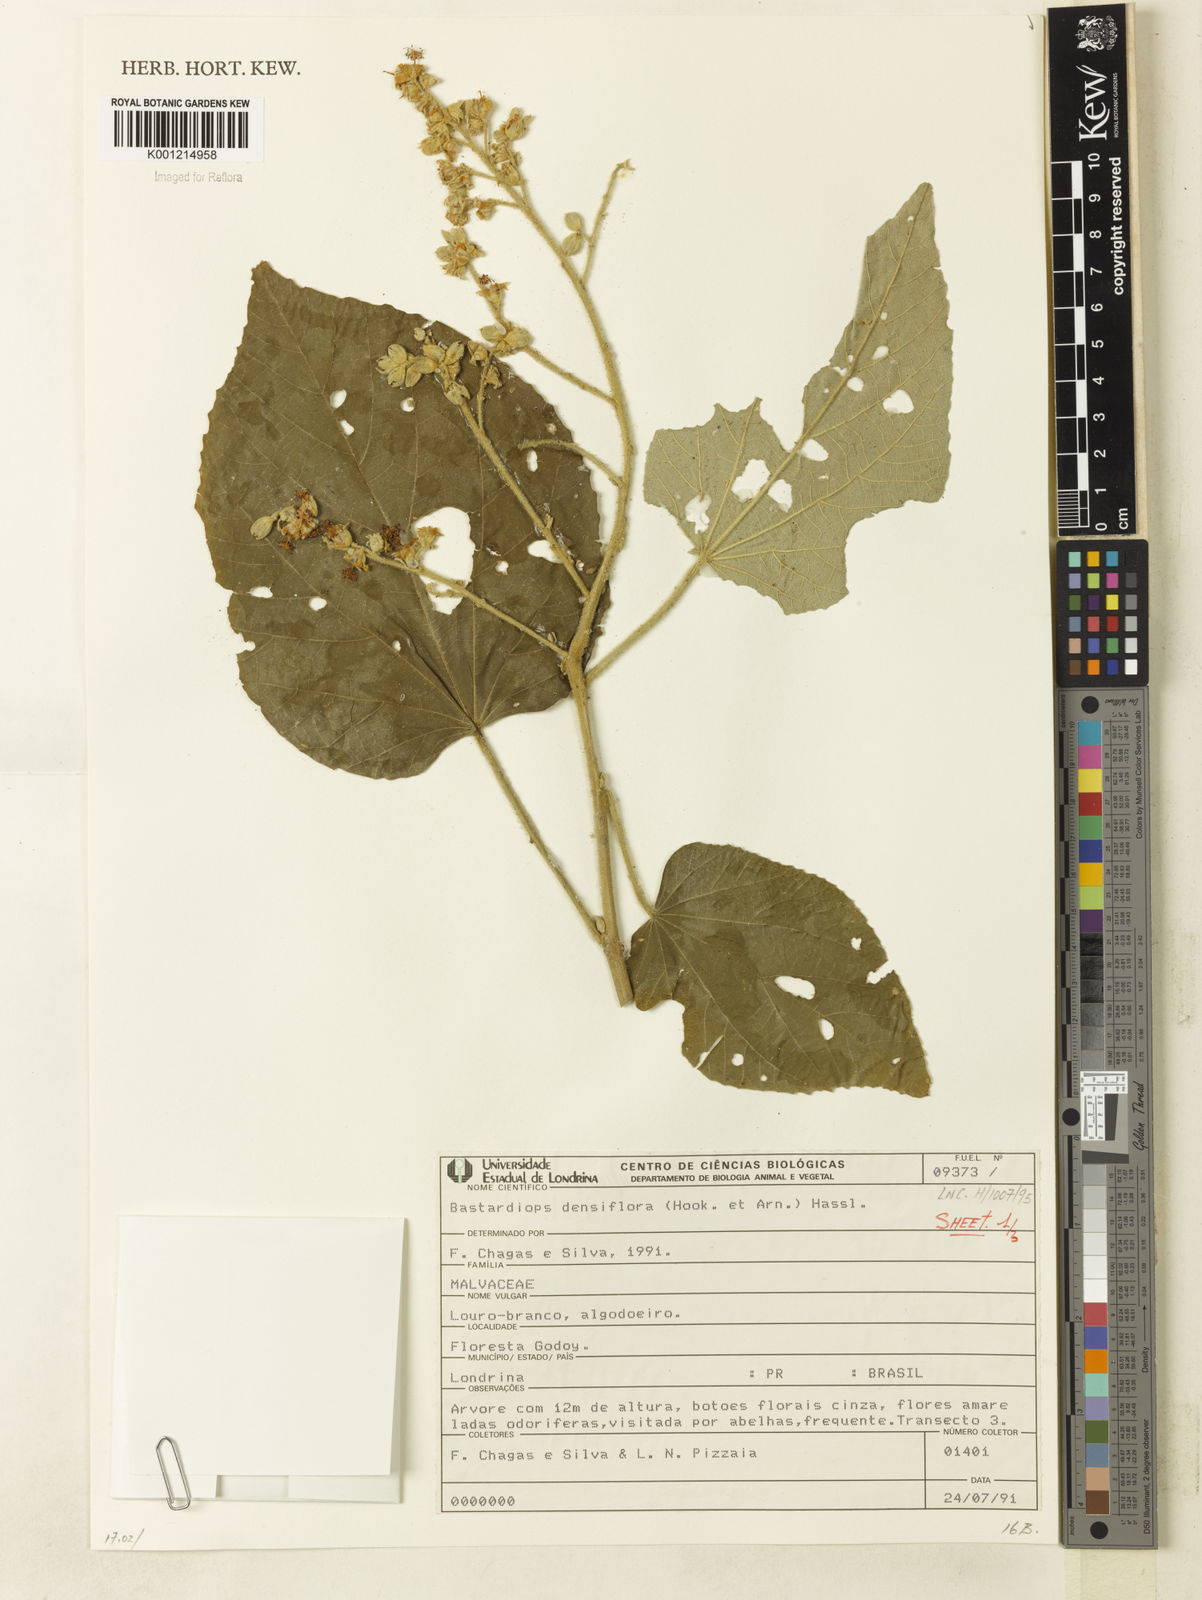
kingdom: Plantae
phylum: Tracheophyta
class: Magnoliopsida
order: Malvales
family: Malvaceae
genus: Bastardiopsis
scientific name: Bastardiopsis densiflora
